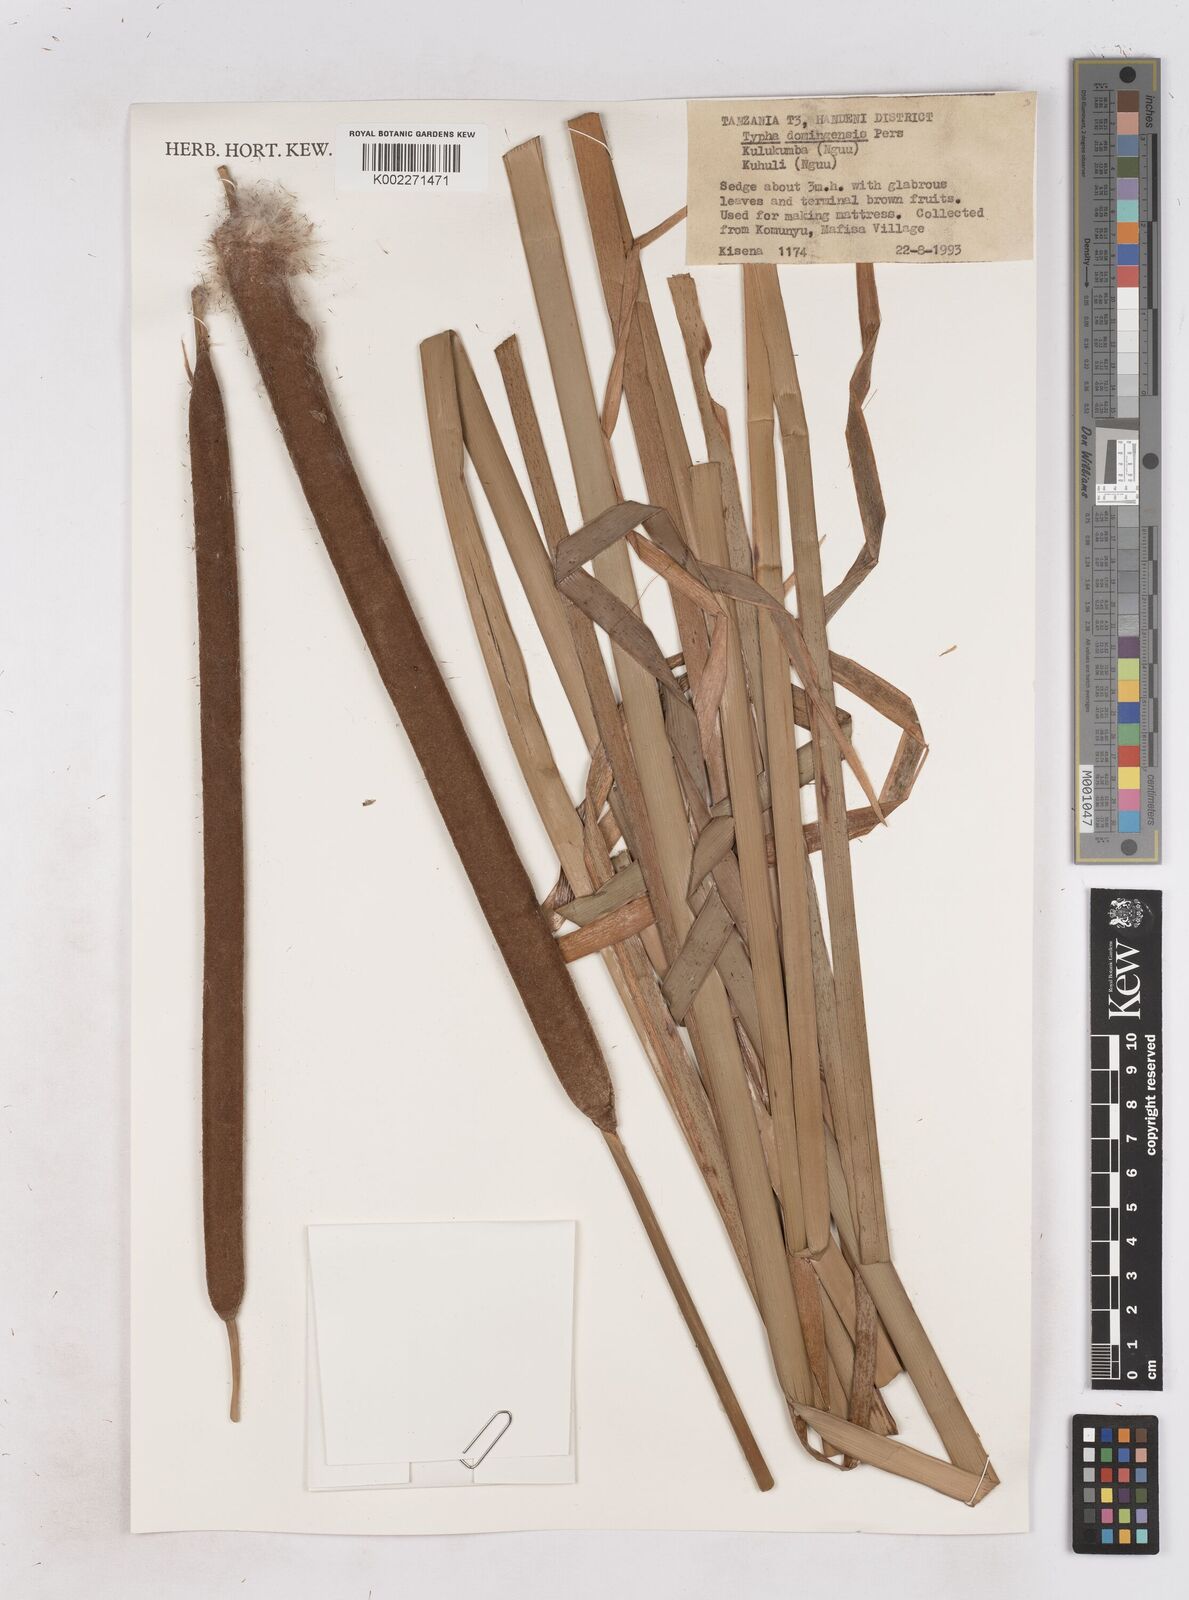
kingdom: Plantae
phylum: Tracheophyta
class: Liliopsida
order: Poales
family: Typhaceae
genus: Typha
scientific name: Typha domingensis
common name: Southern cattail
